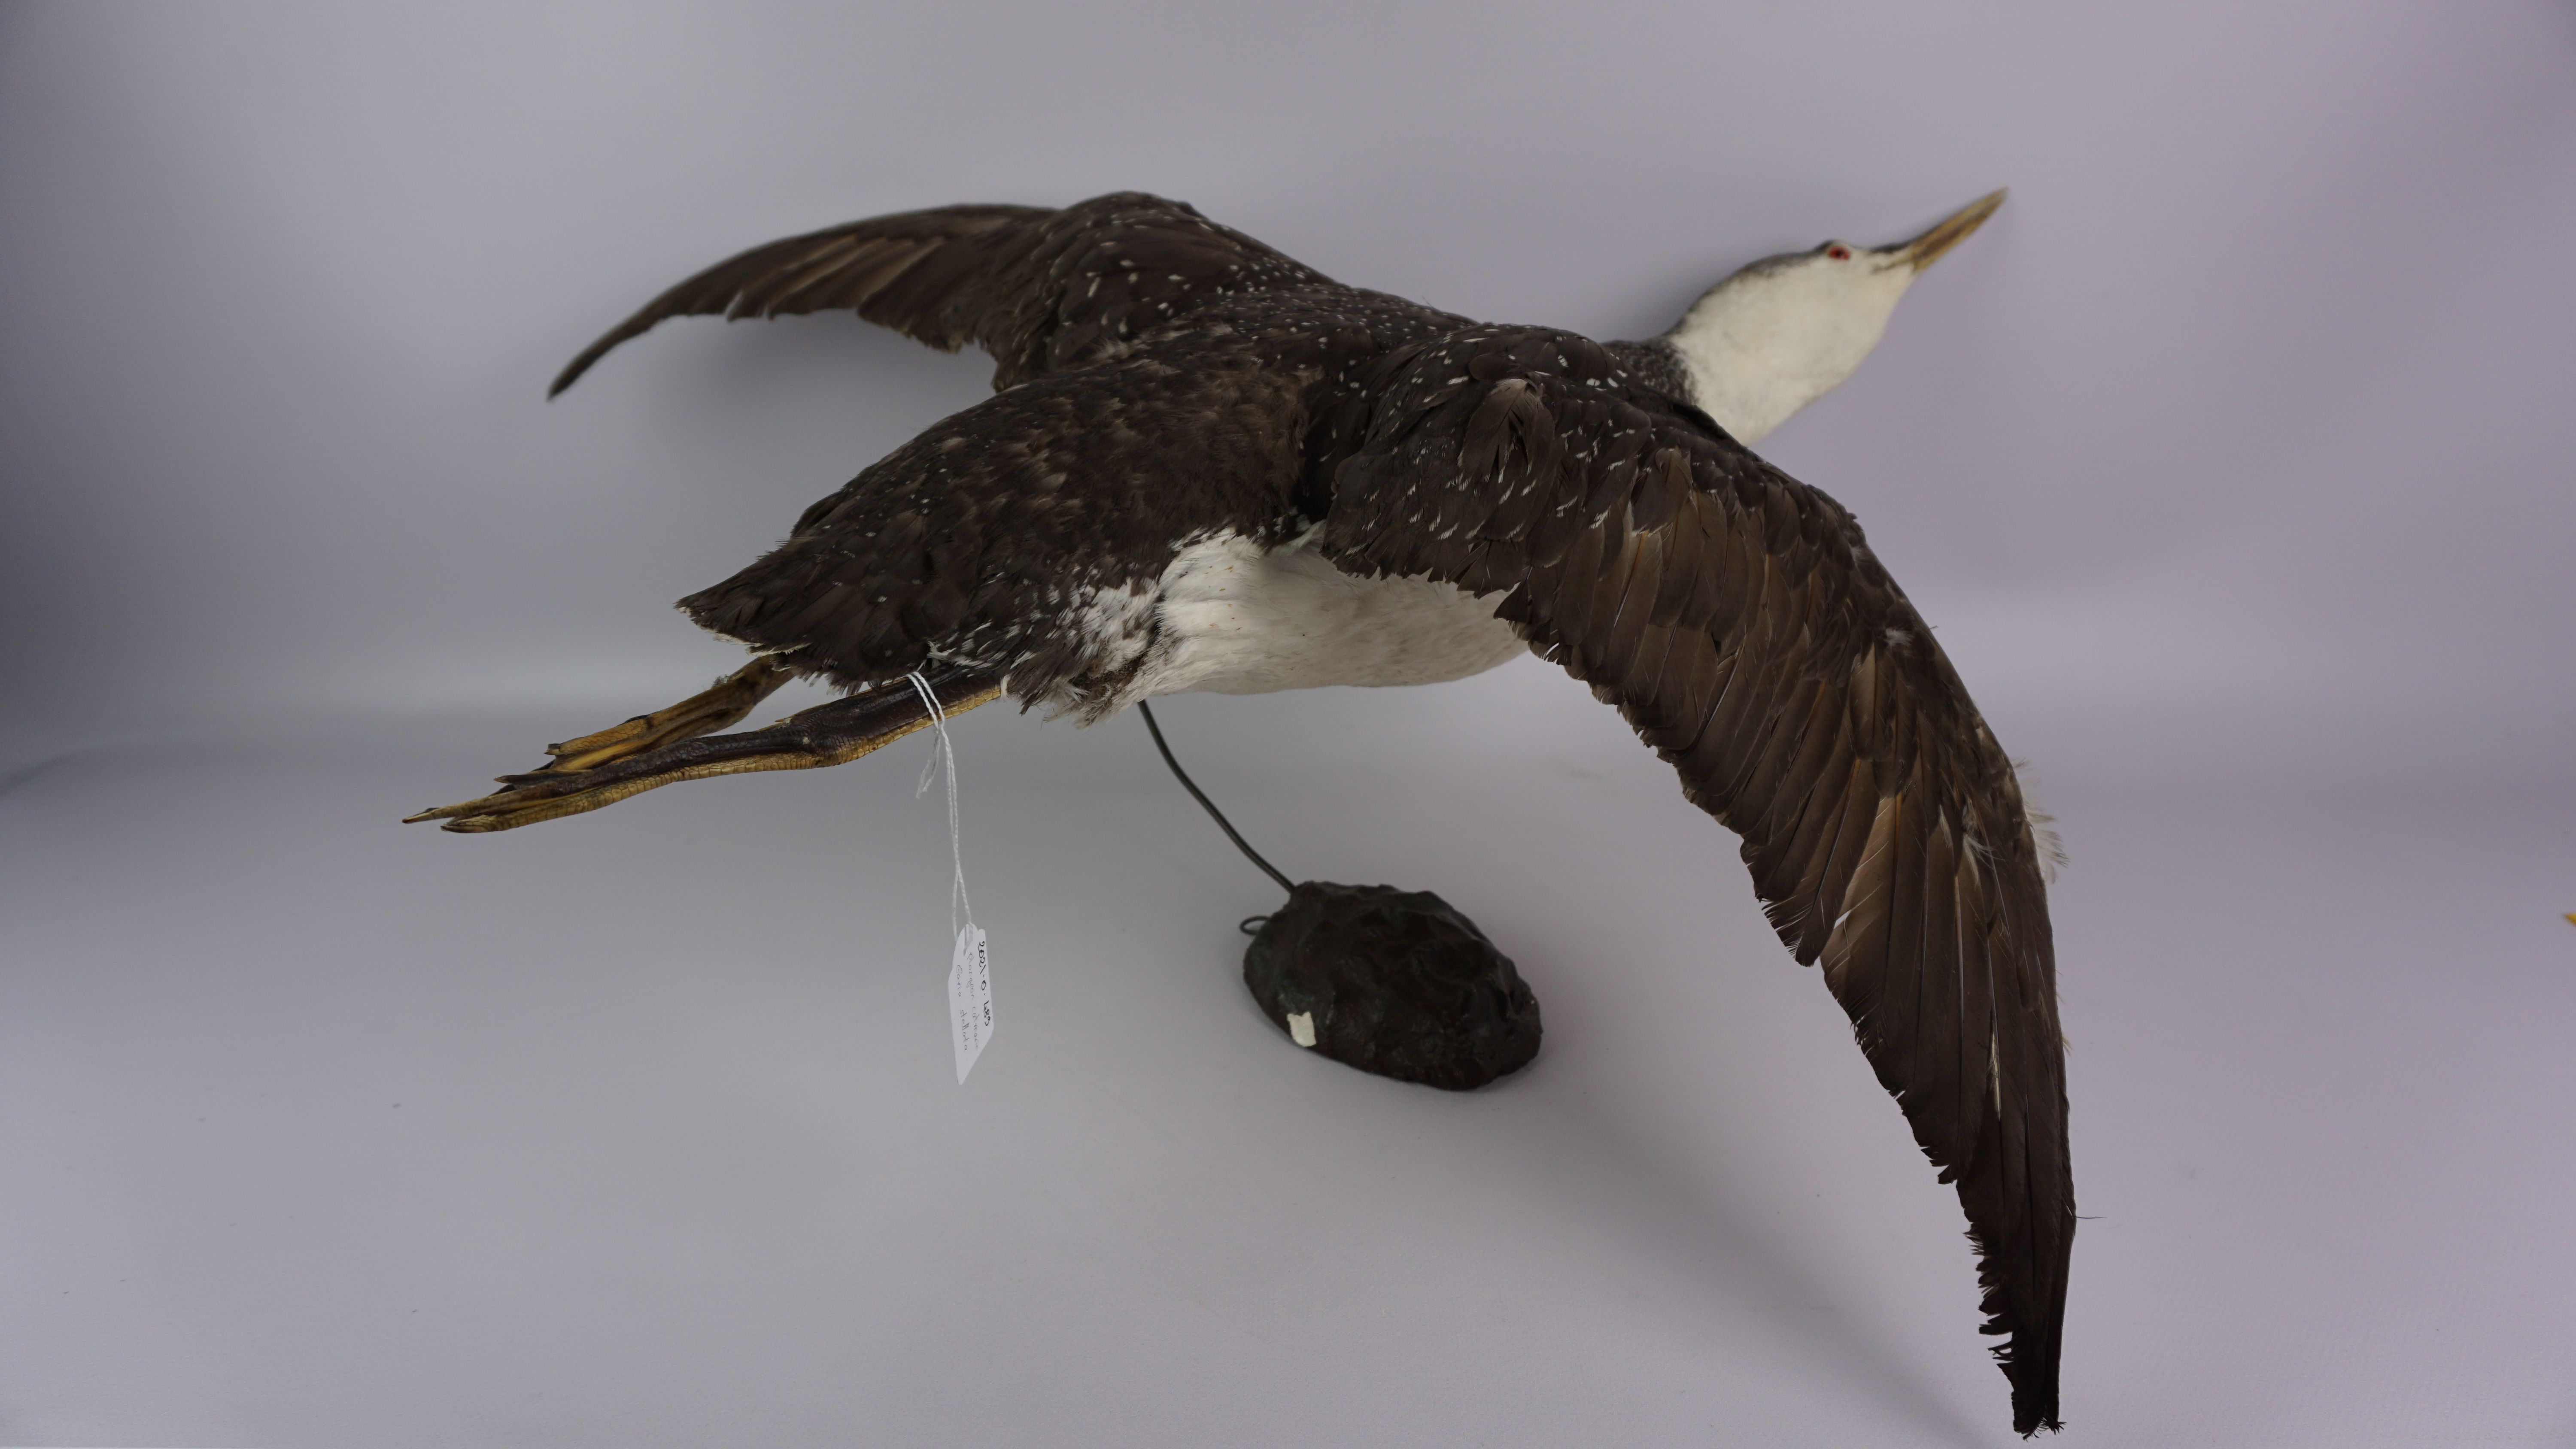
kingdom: Animalia
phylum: Chordata
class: Aves
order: Gaviiformes
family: Gaviidae
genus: Gavia
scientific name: Gavia stellata
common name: Red-throated loon
